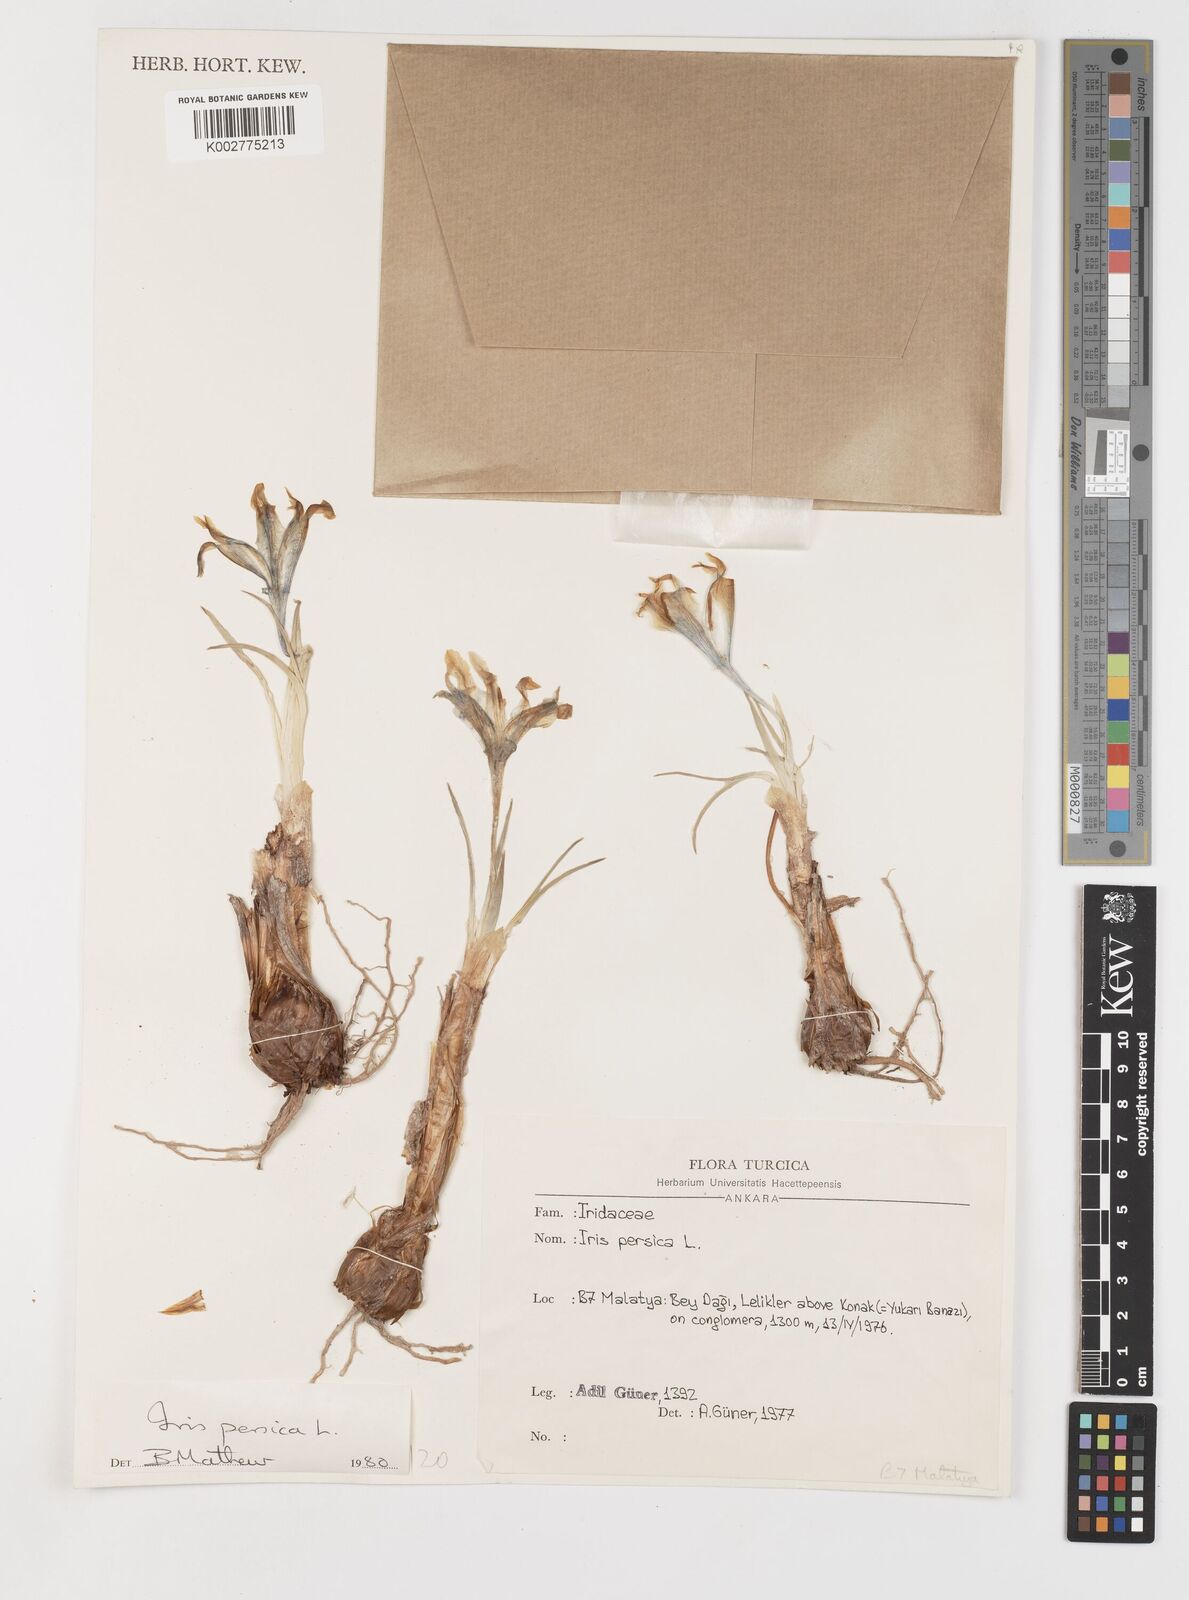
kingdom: Plantae
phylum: Tracheophyta
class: Liliopsida
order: Asparagales
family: Iridaceae
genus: Iris
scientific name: Iris persica
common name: Persian iris
